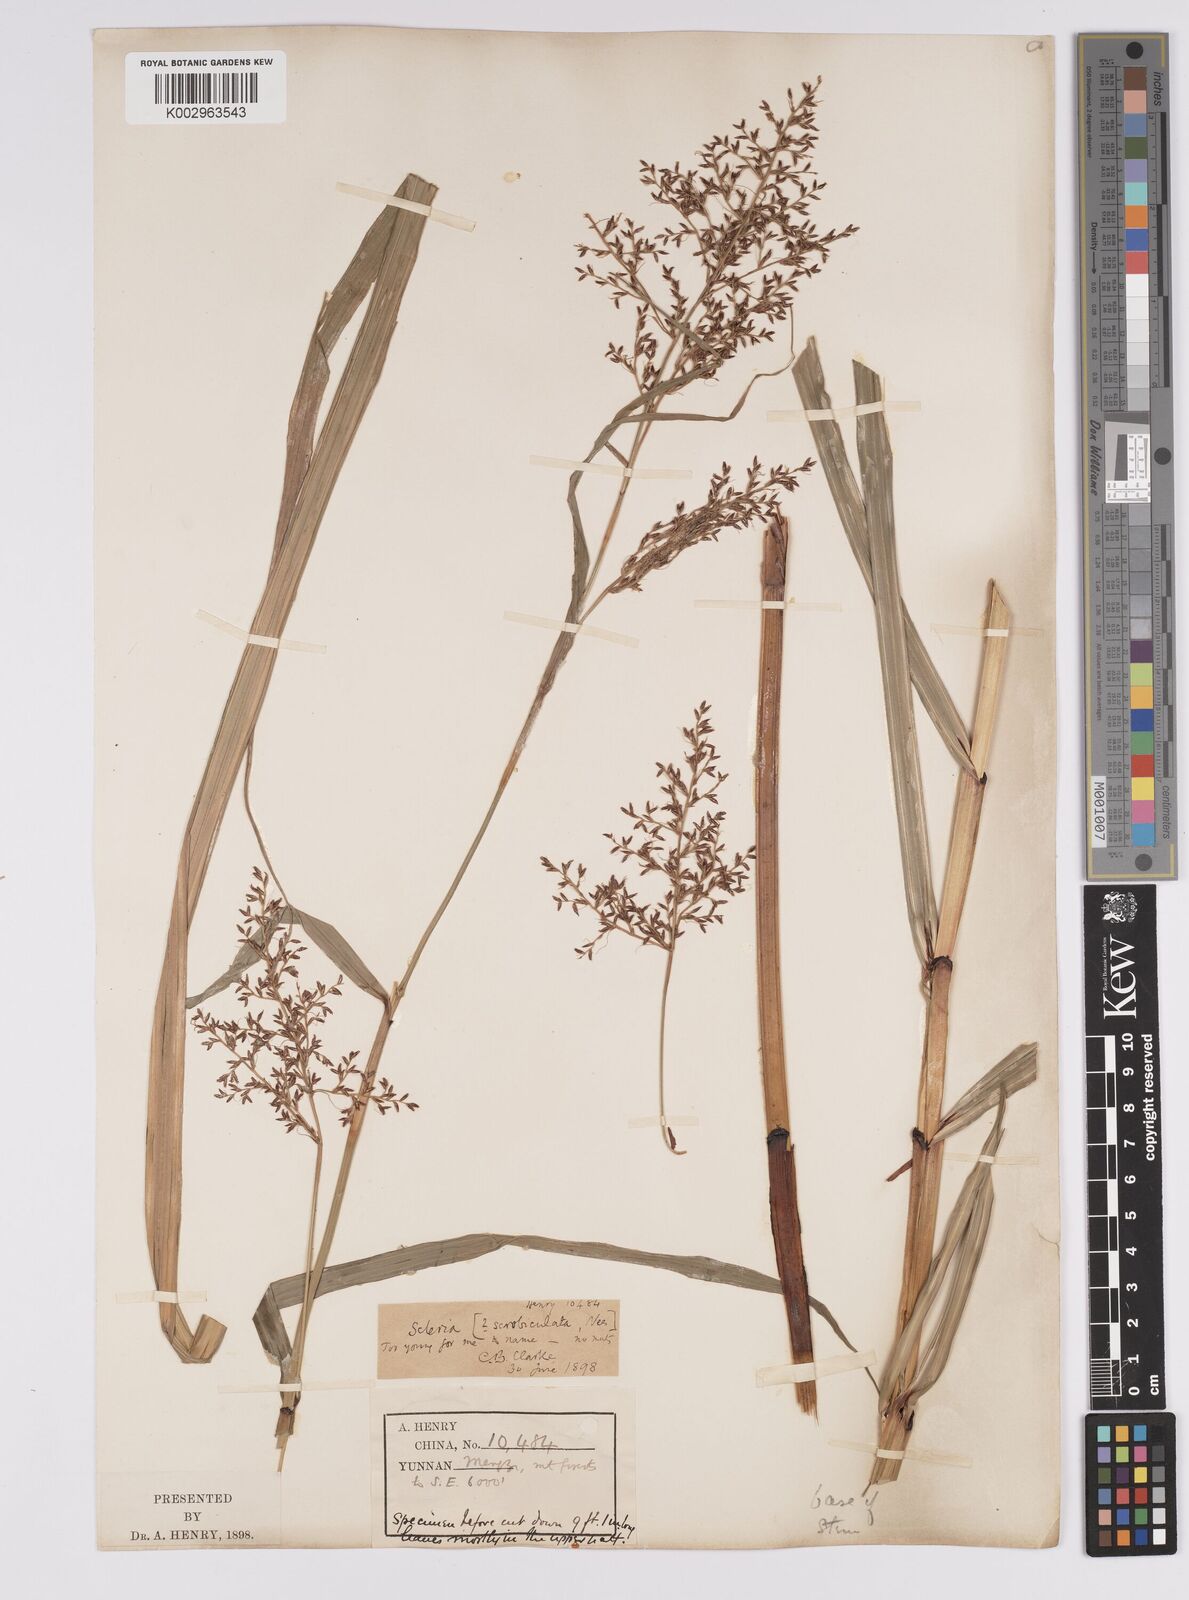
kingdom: Plantae
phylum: Tracheophyta
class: Liliopsida
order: Poales
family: Cyperaceae
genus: Scleria
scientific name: Scleria scrobiculata
